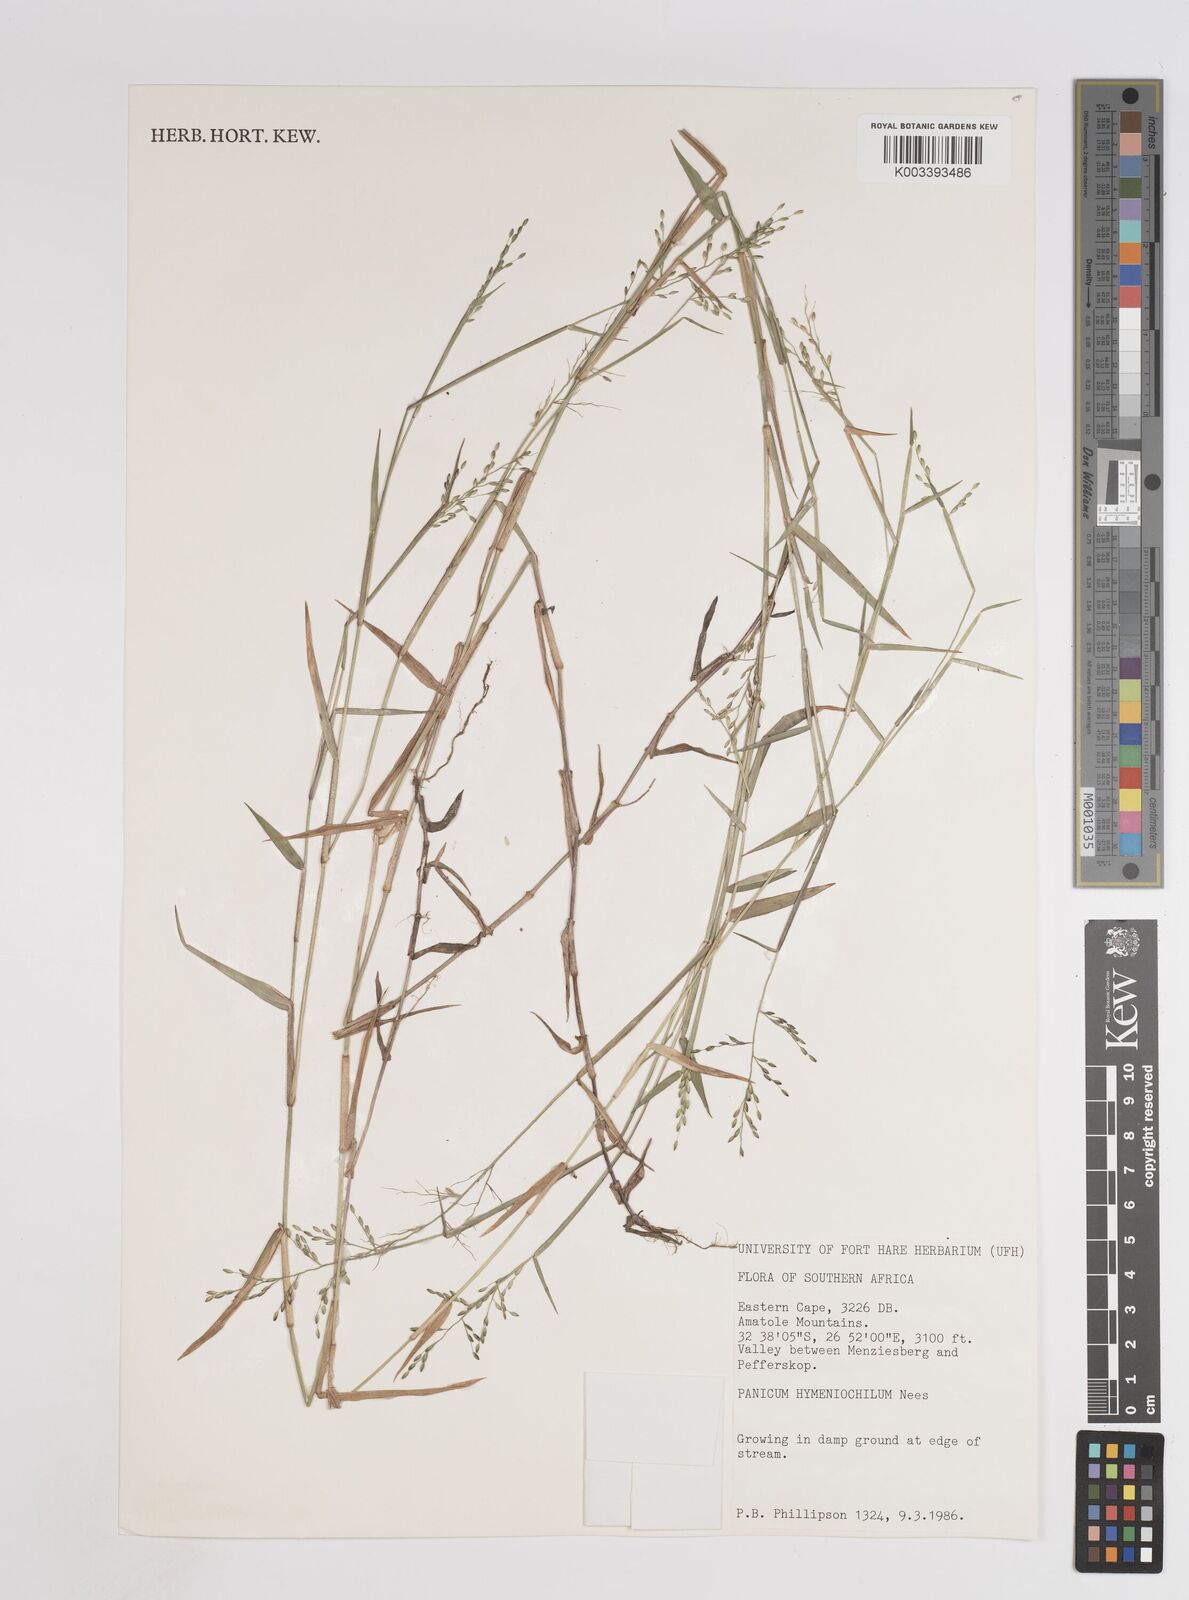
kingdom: Plantae
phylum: Tracheophyta
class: Liliopsida
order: Poales
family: Poaceae
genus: Adenochloa
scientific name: Adenochloa hymeniochila
